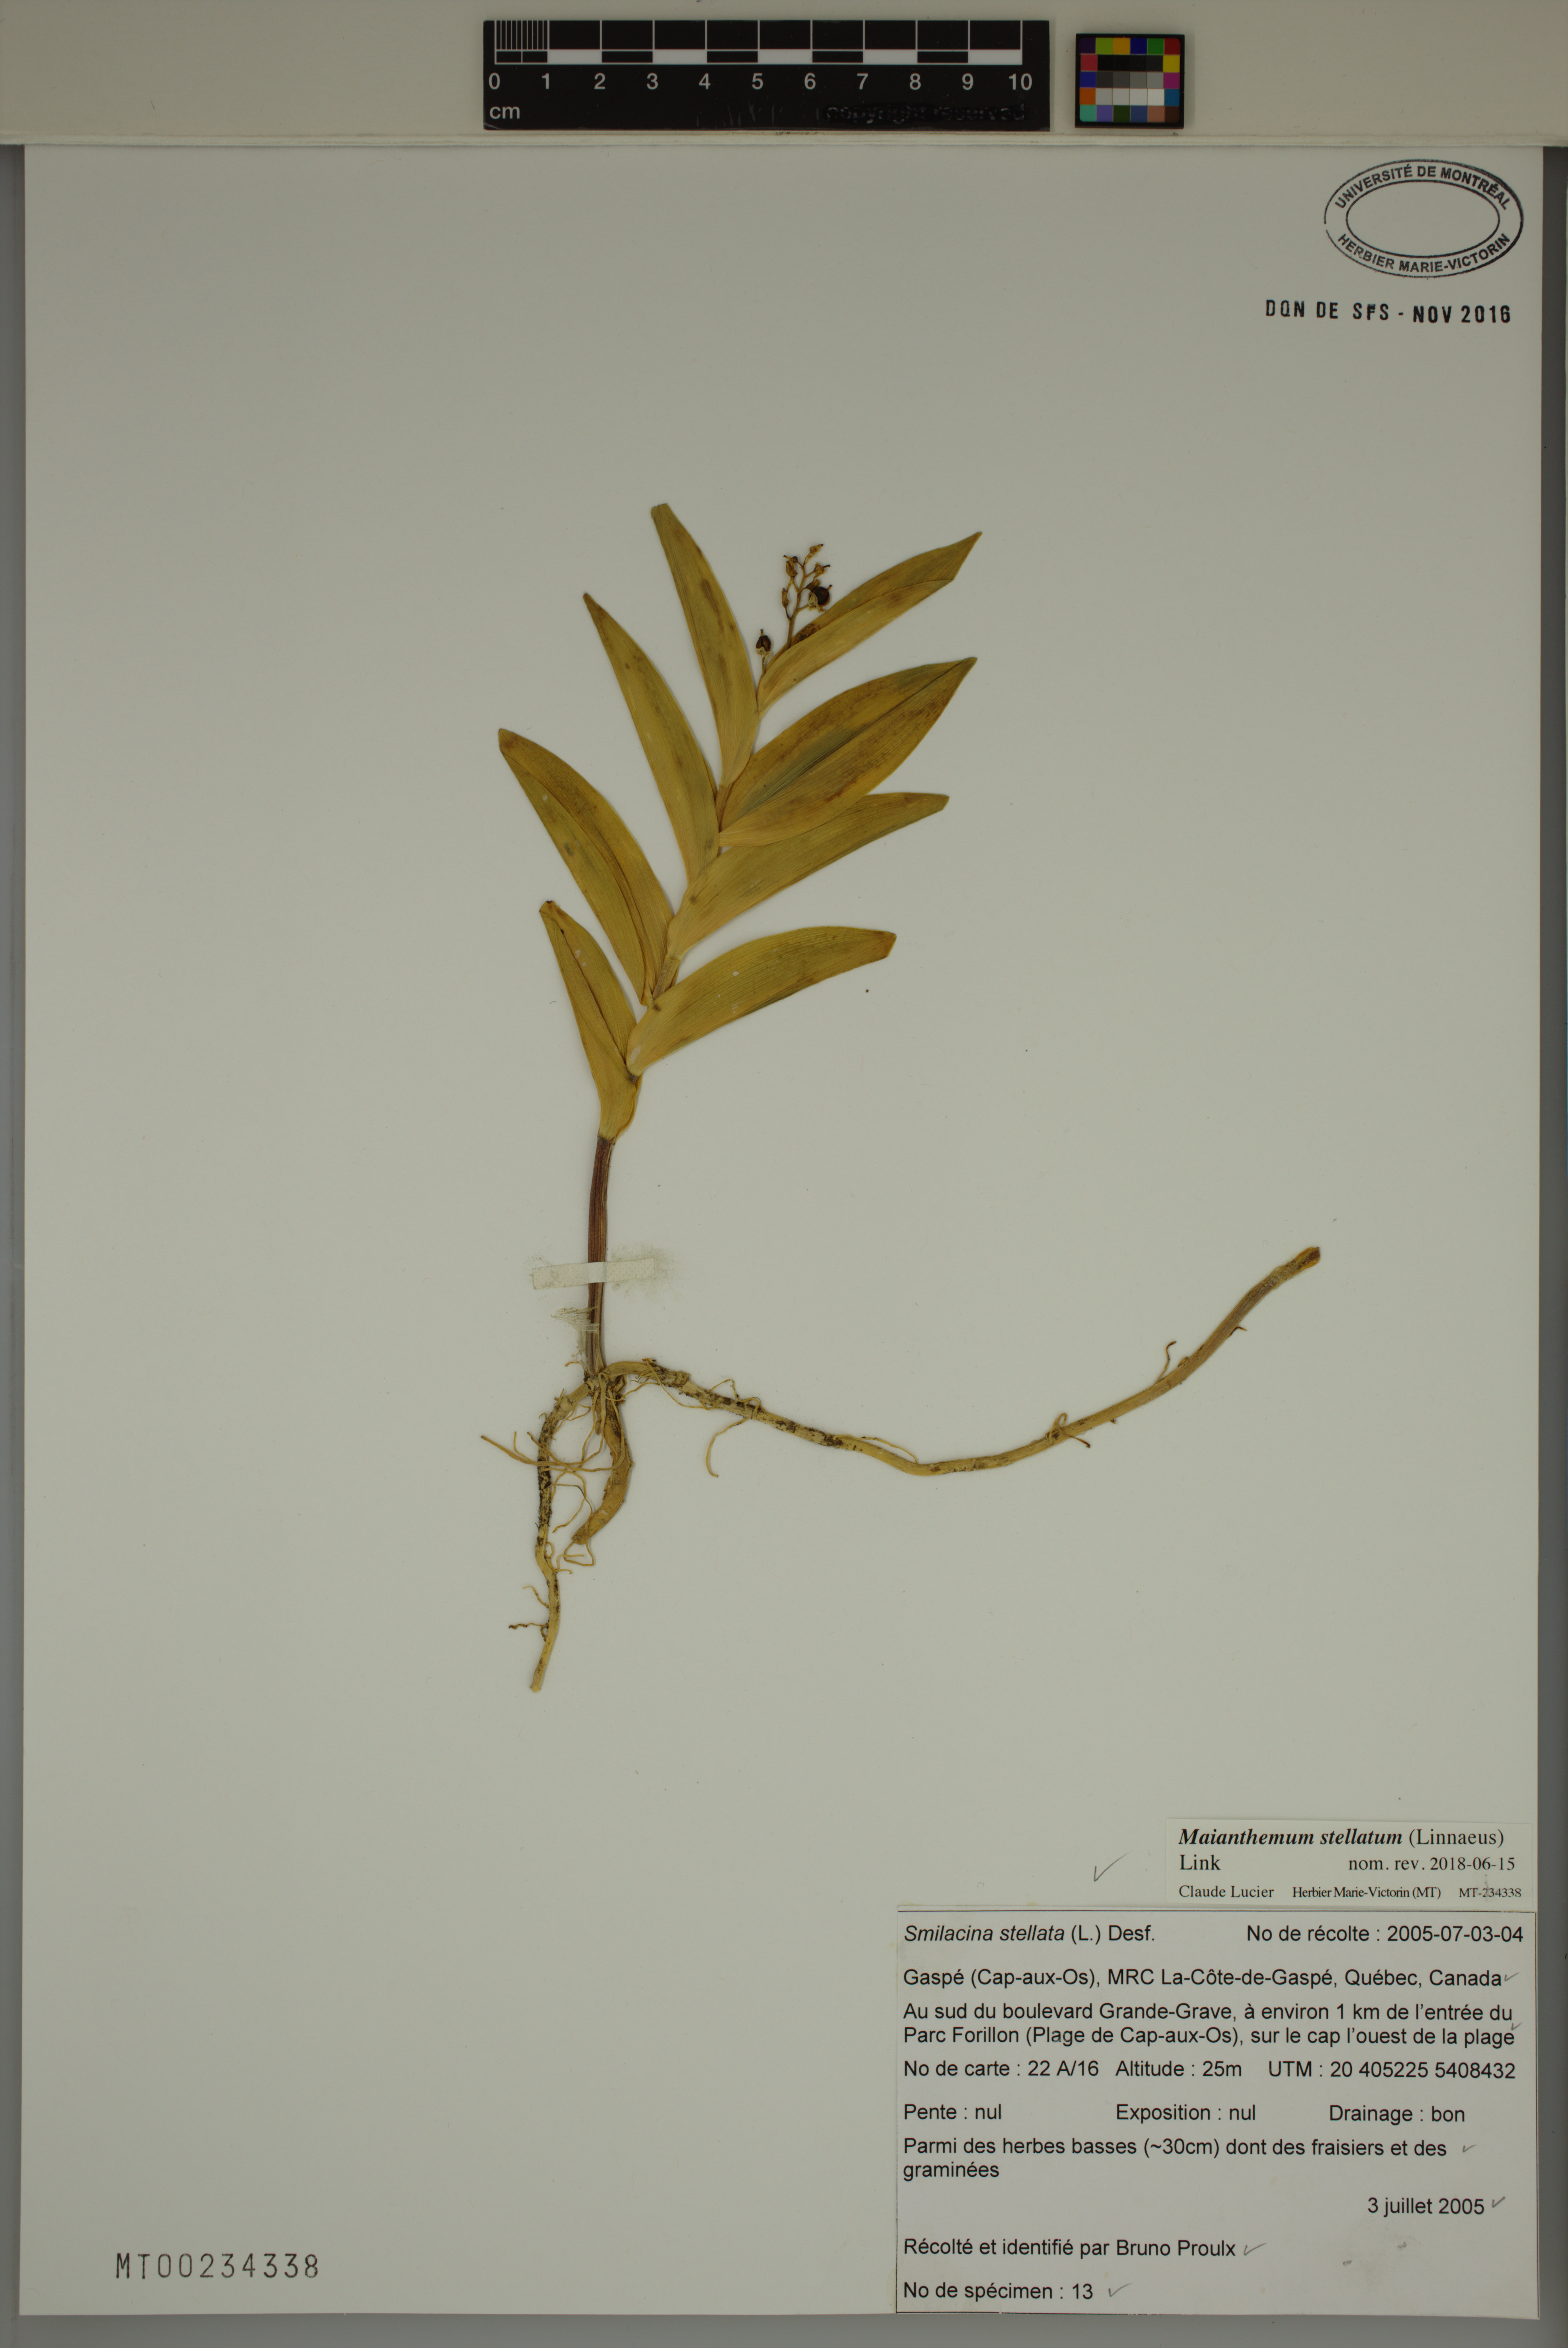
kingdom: Plantae
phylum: Tracheophyta
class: Liliopsida
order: Asparagales
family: Asparagaceae
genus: Maianthemum
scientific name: Maianthemum stellatum
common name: Little false solomon's seal
